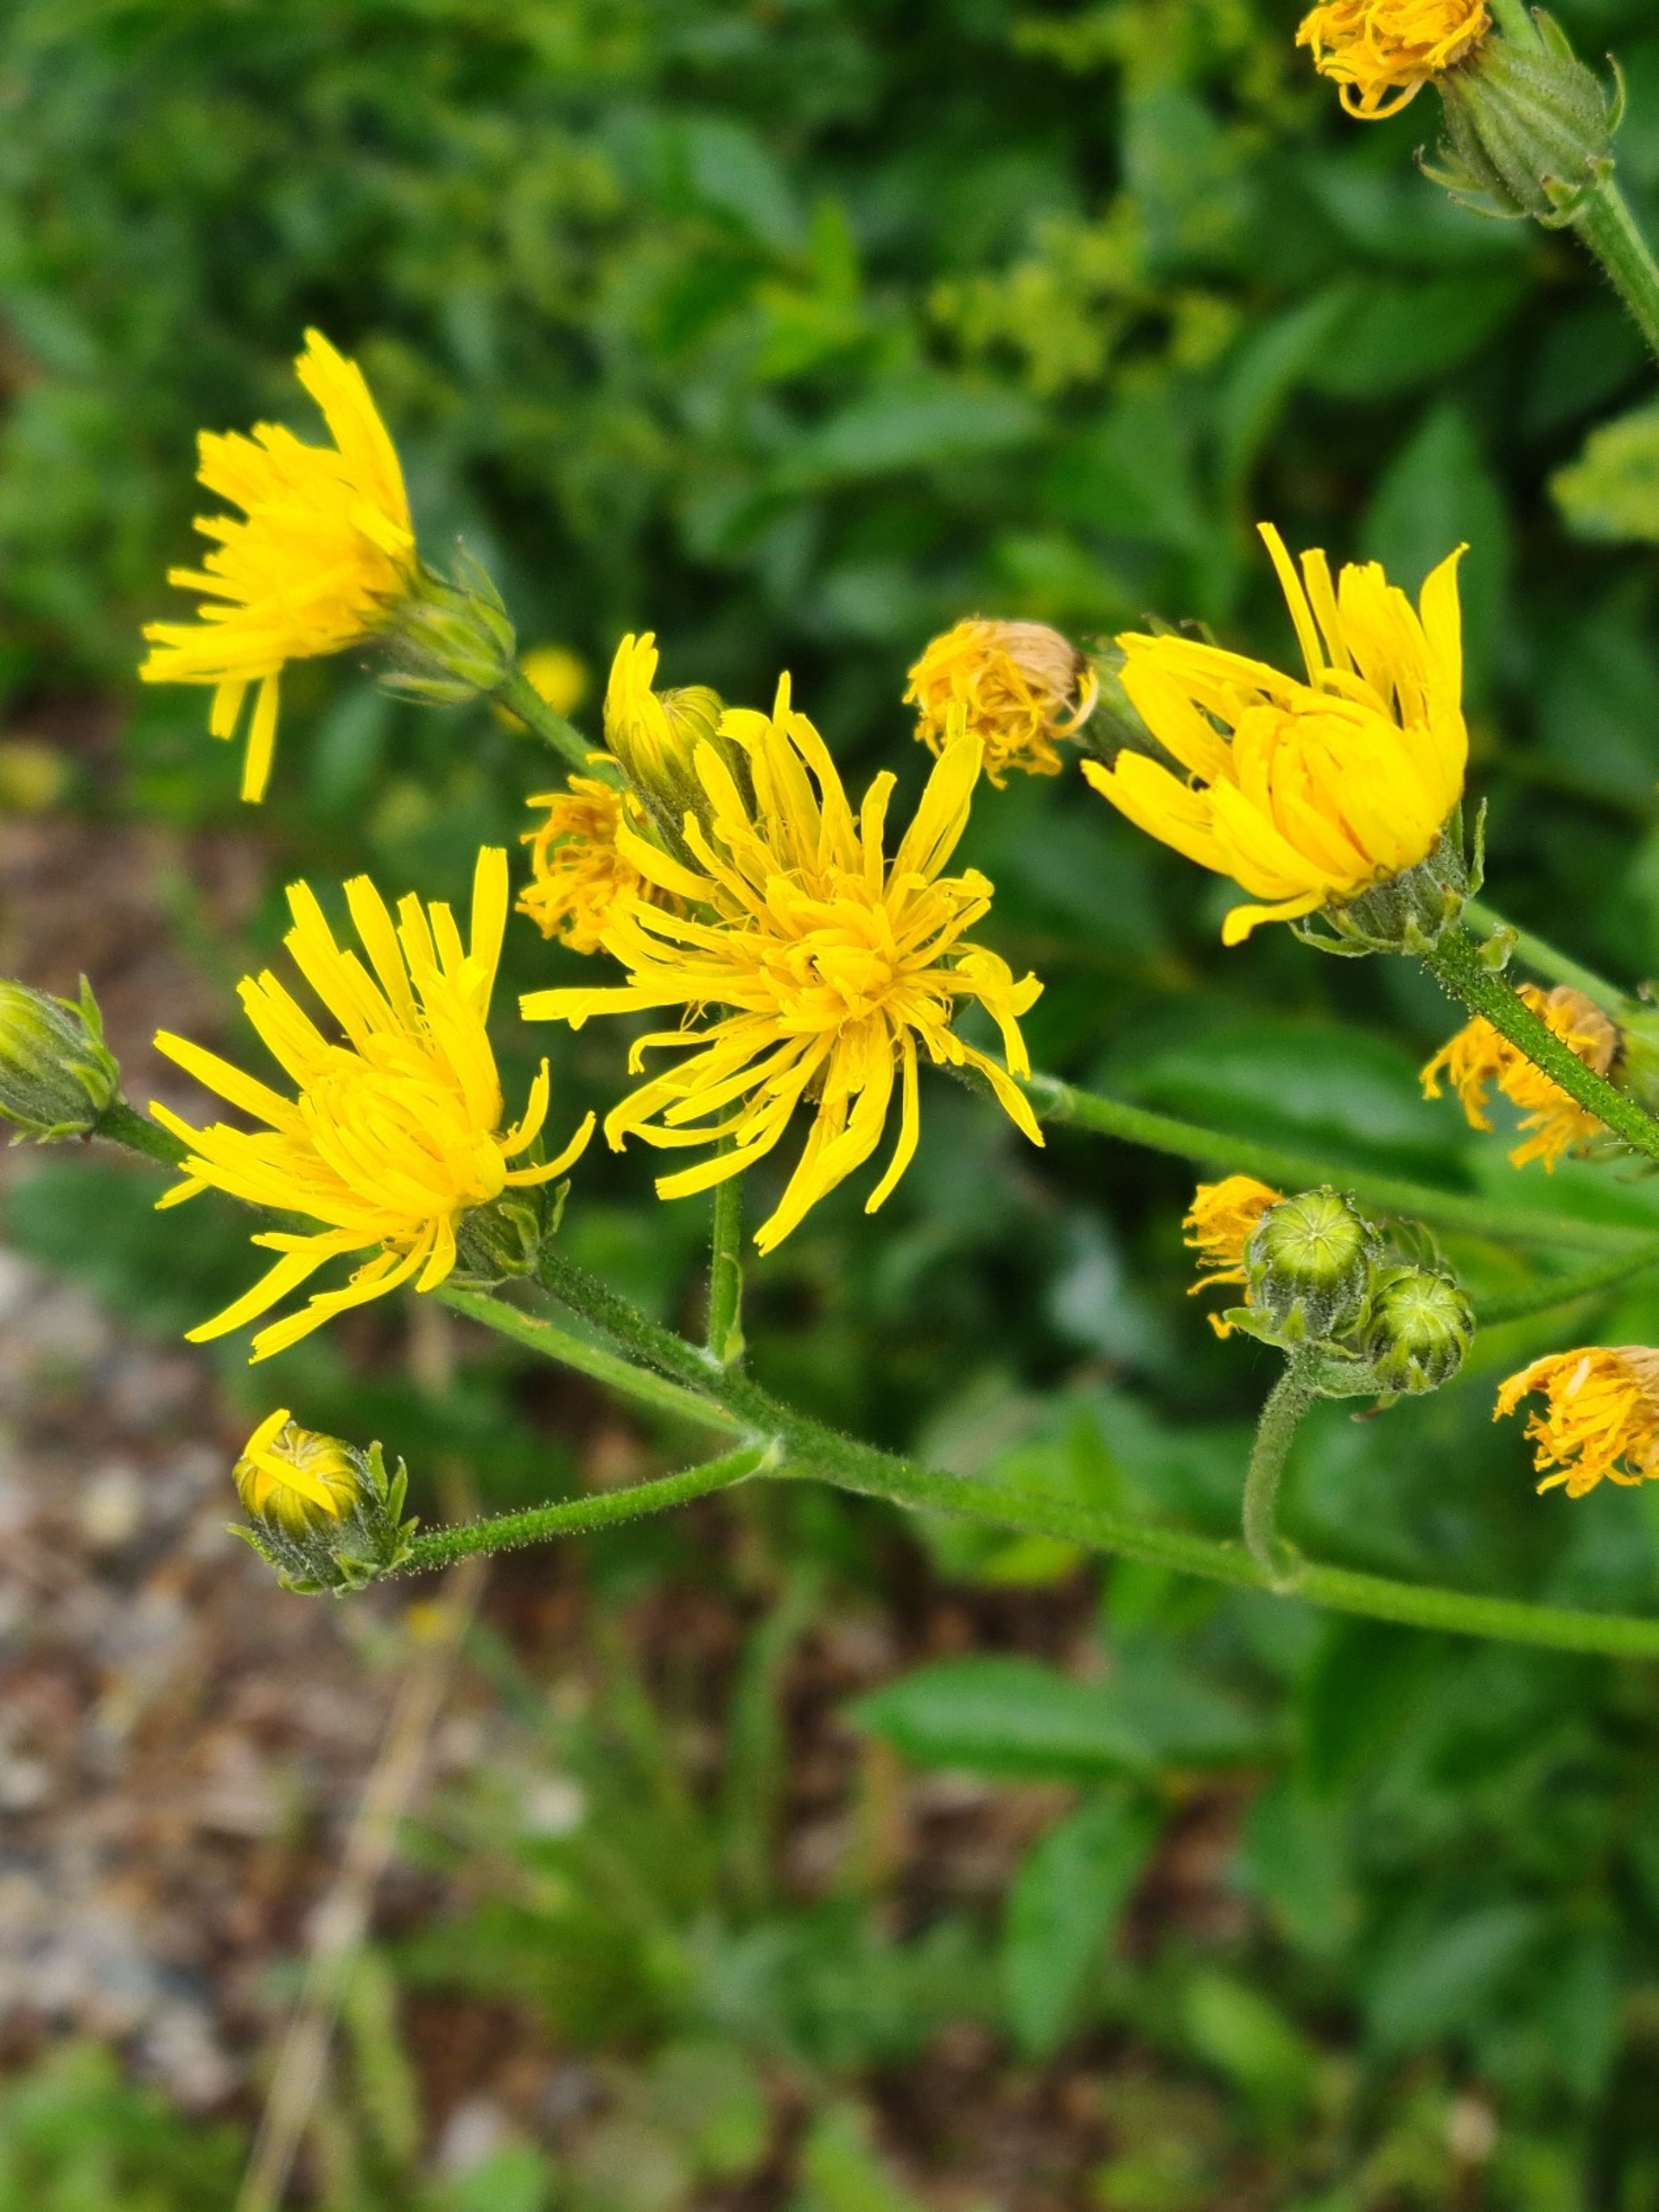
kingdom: Plantae
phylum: Tracheophyta
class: Magnoliopsida
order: Asterales
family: Asteraceae
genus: Crepis
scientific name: Crepis biennis
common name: Toårig høgeskæg
